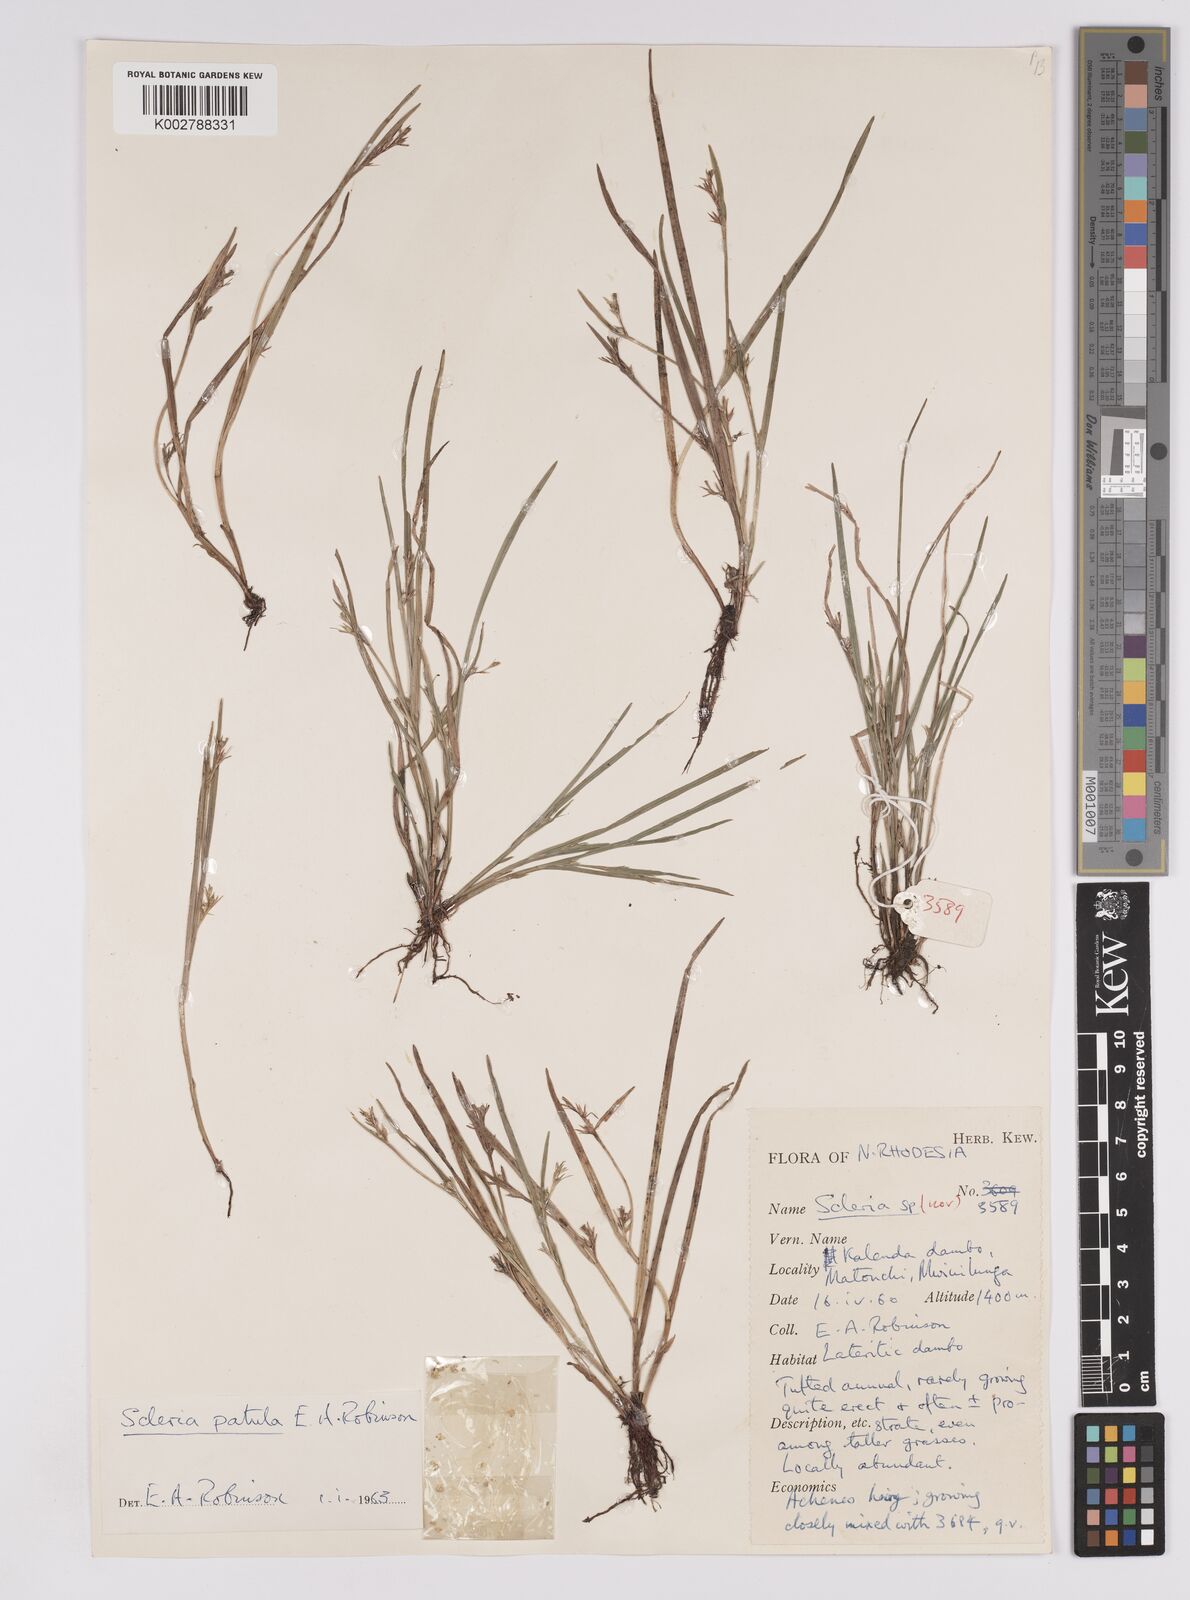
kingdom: Plantae
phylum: Tracheophyta
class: Liliopsida
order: Poales
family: Cyperaceae
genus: Scleria
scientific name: Scleria patula
